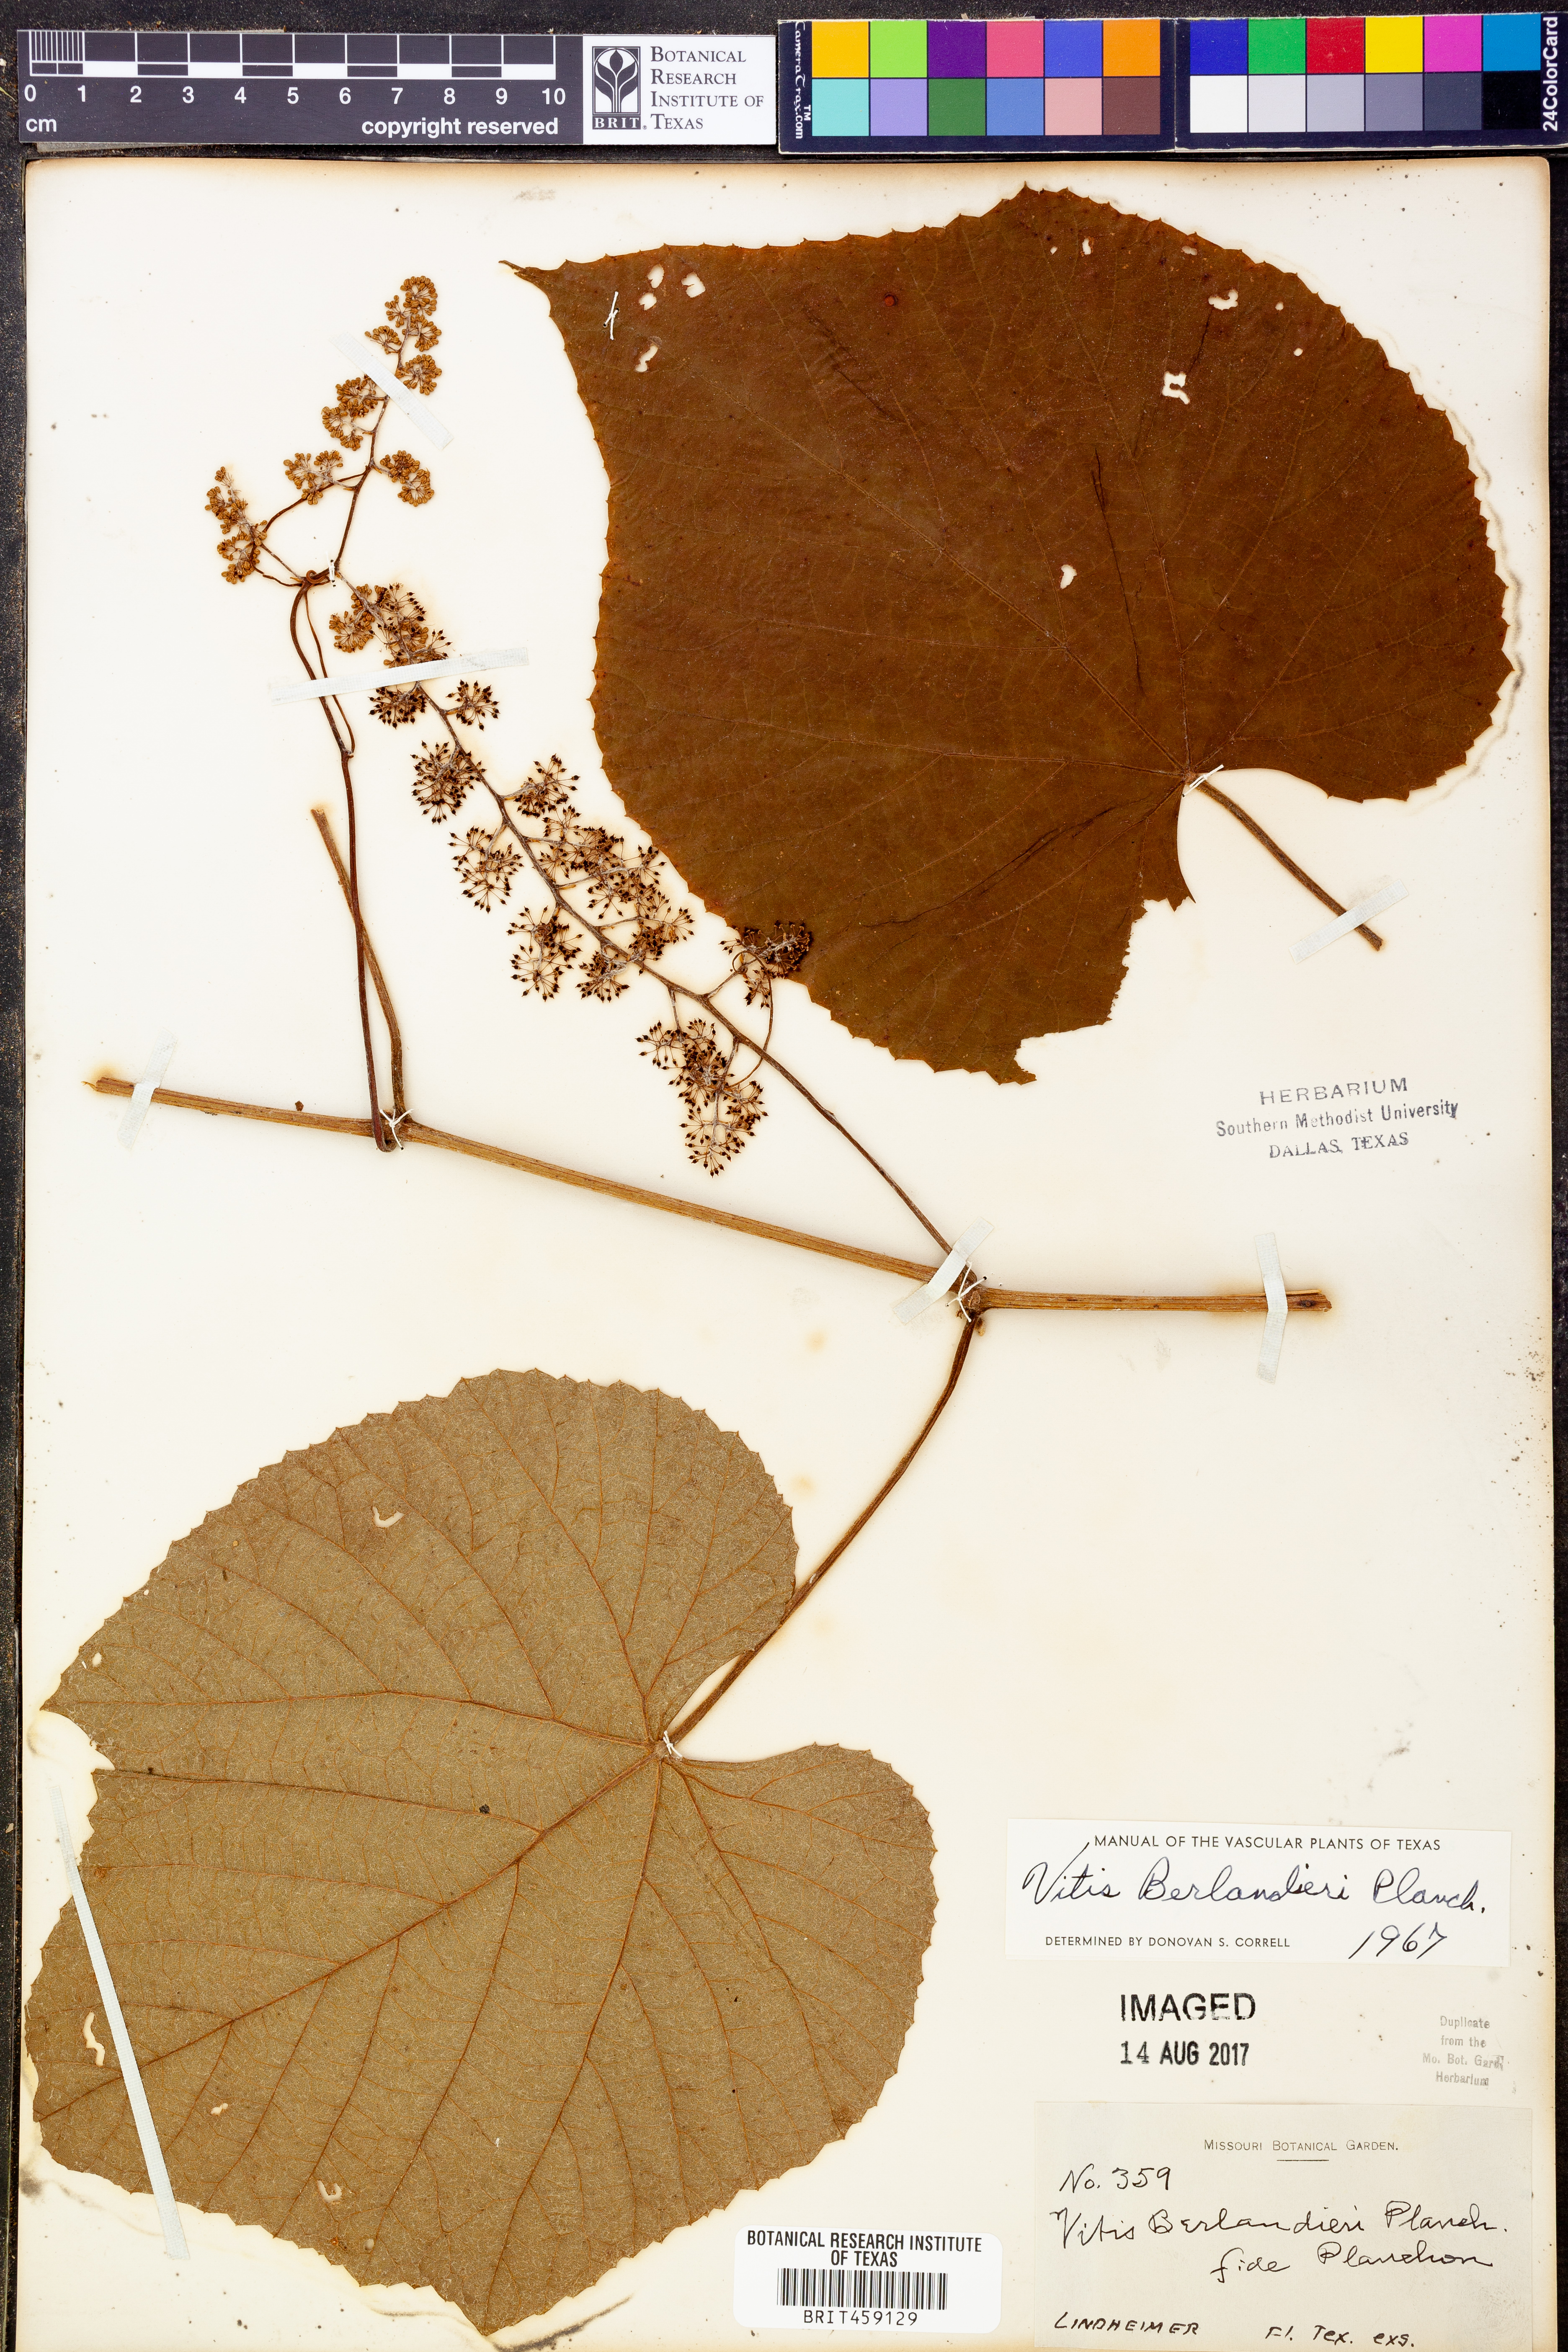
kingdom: Plantae
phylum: Tracheophyta
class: Magnoliopsida
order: Vitales
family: Vitaceae
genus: Vitis
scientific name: Vitis cinerea
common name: Ashy grape
